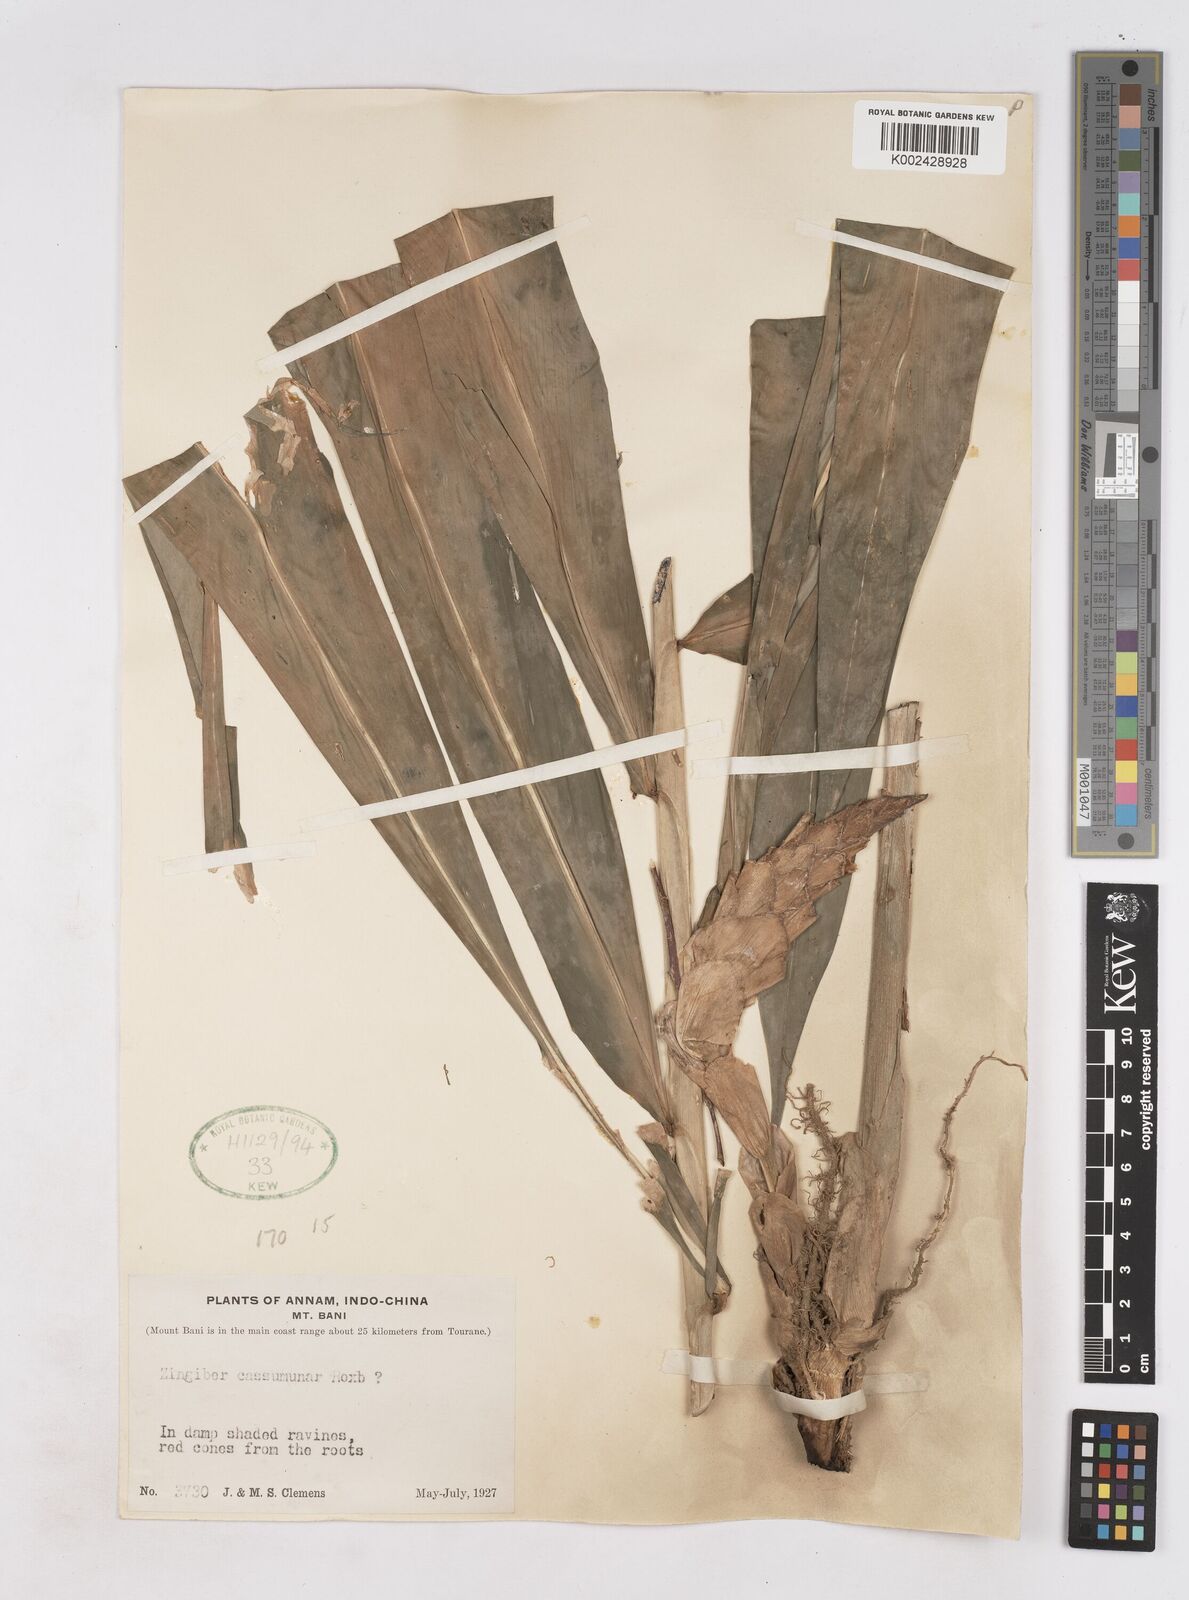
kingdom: Plantae
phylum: Tracheophyta
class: Liliopsida
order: Zingiberales
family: Zingiberaceae
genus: Zingiber
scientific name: Zingiber montanum
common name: Bengal ginger
